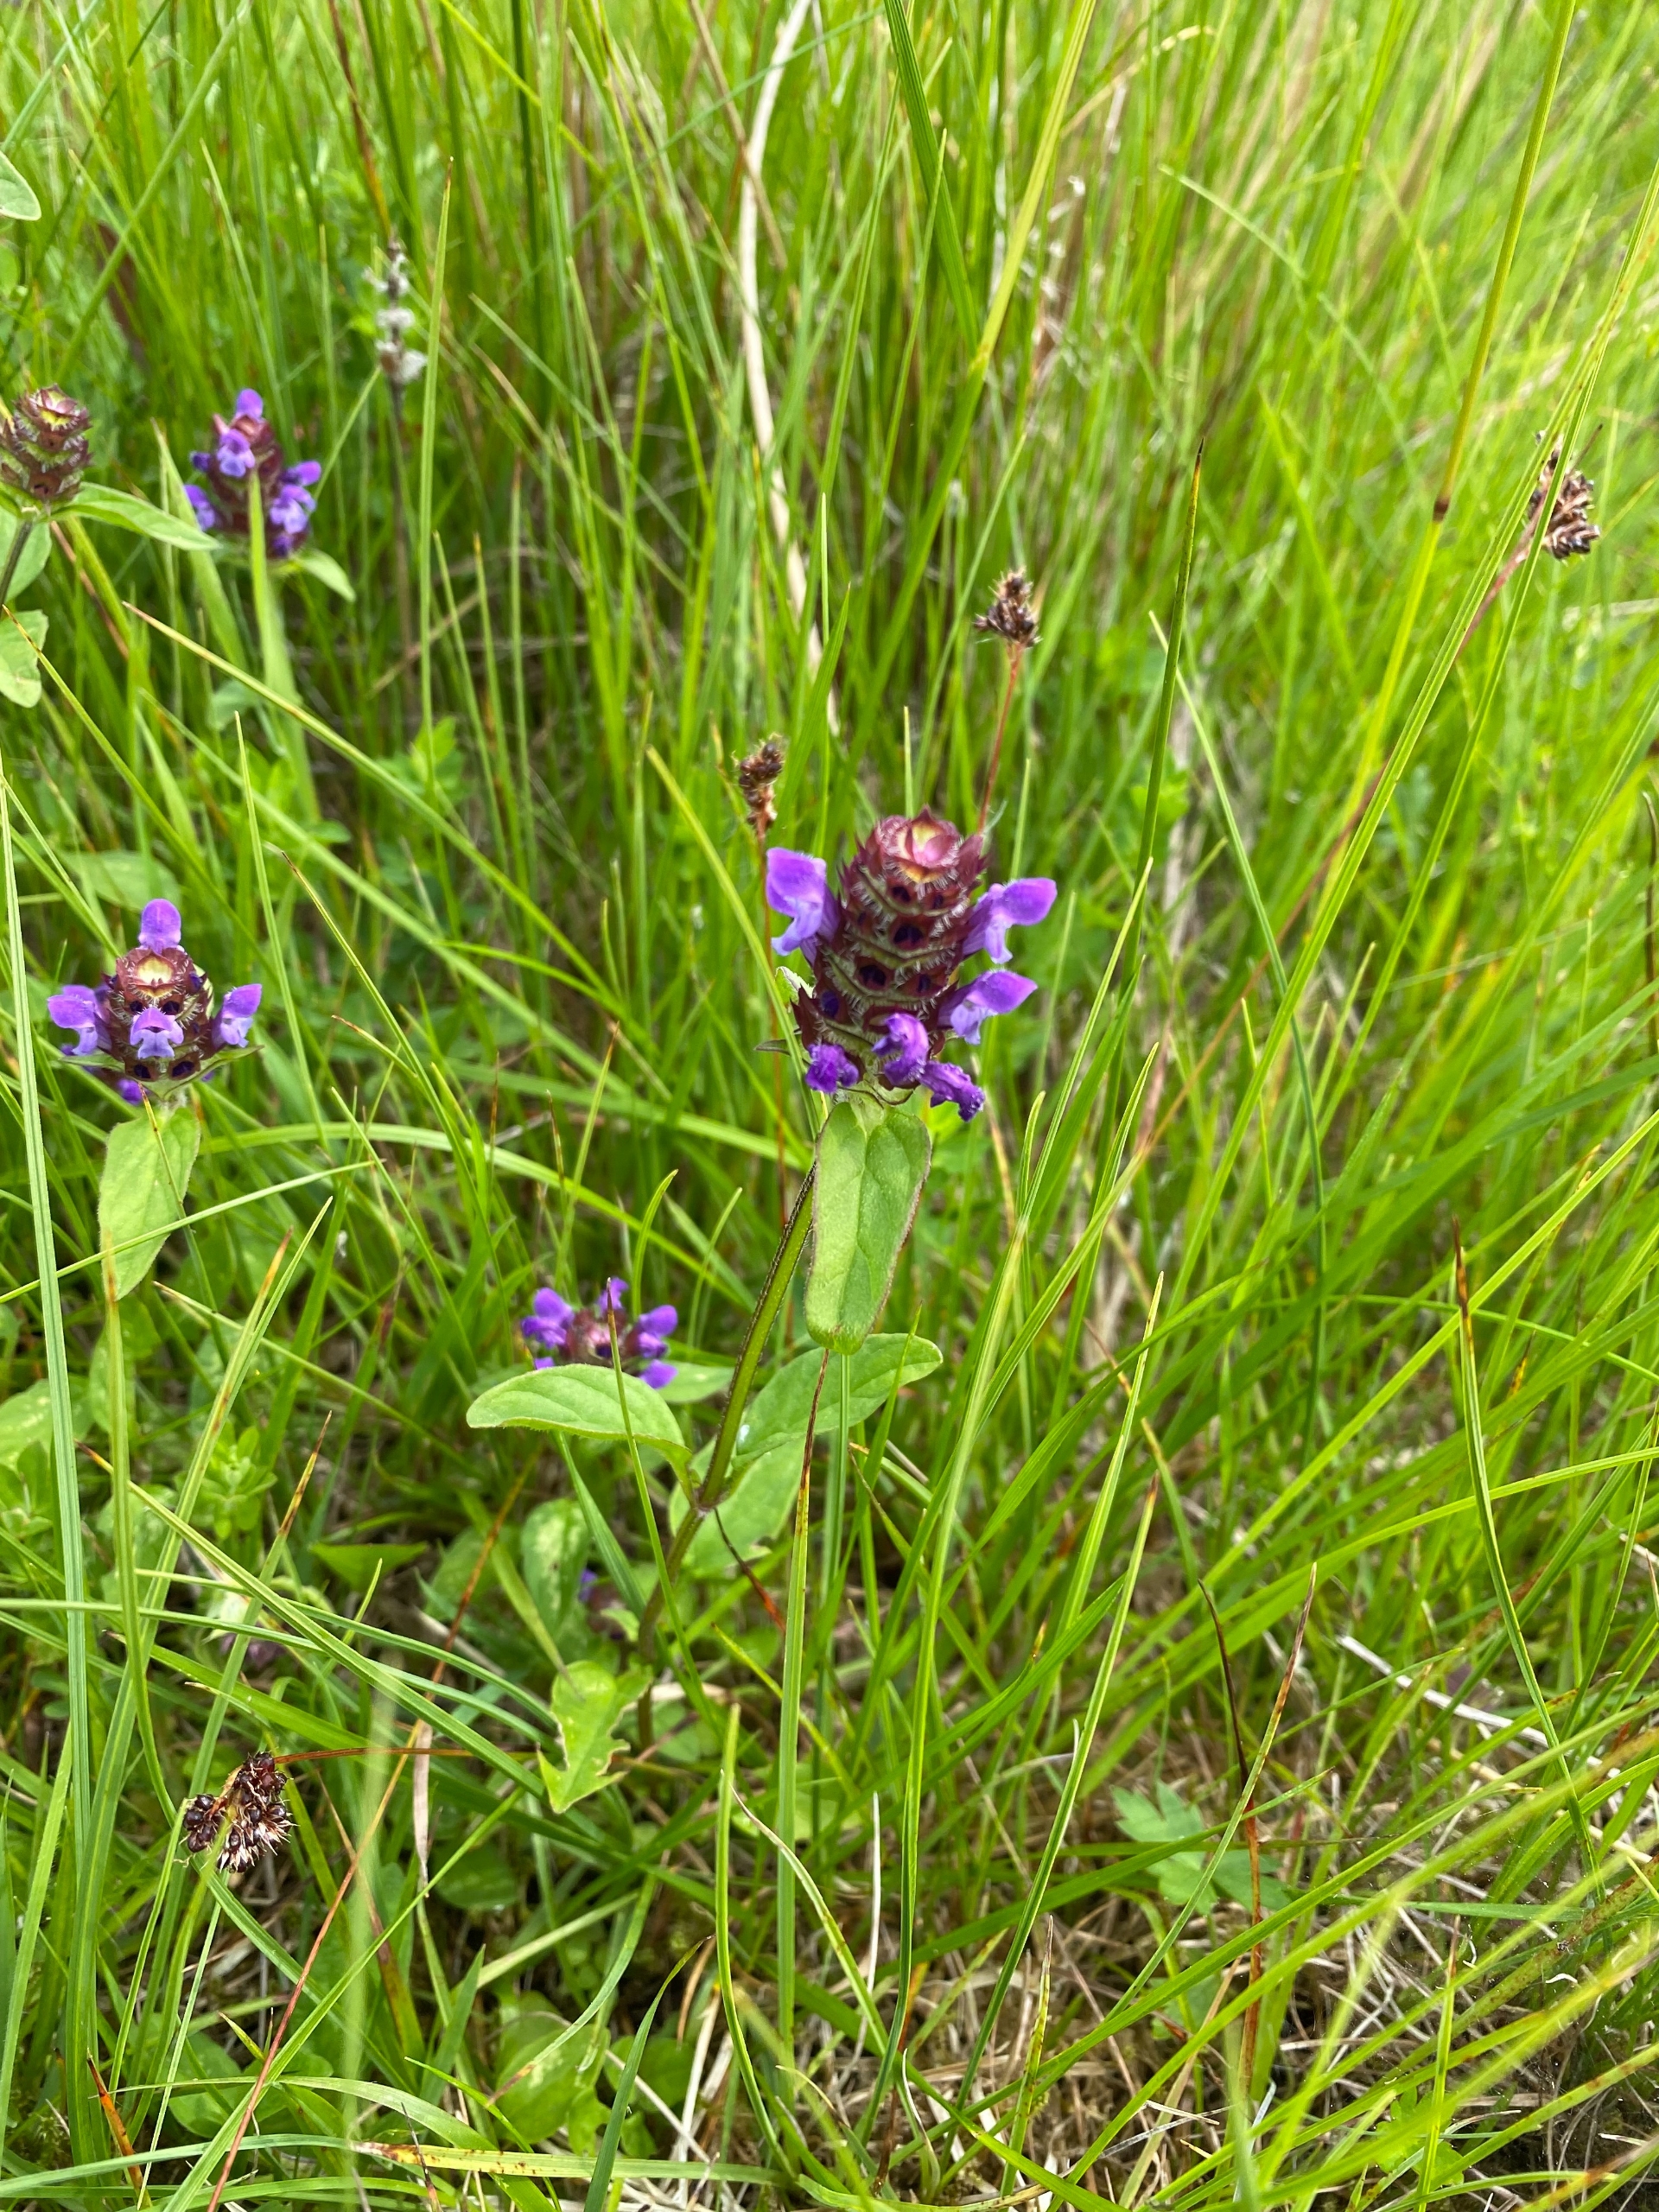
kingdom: Plantae
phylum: Tracheophyta
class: Magnoliopsida
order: Lamiales
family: Lamiaceae
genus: Prunella
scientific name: Prunella vulgaris
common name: Almindelig brunelle
